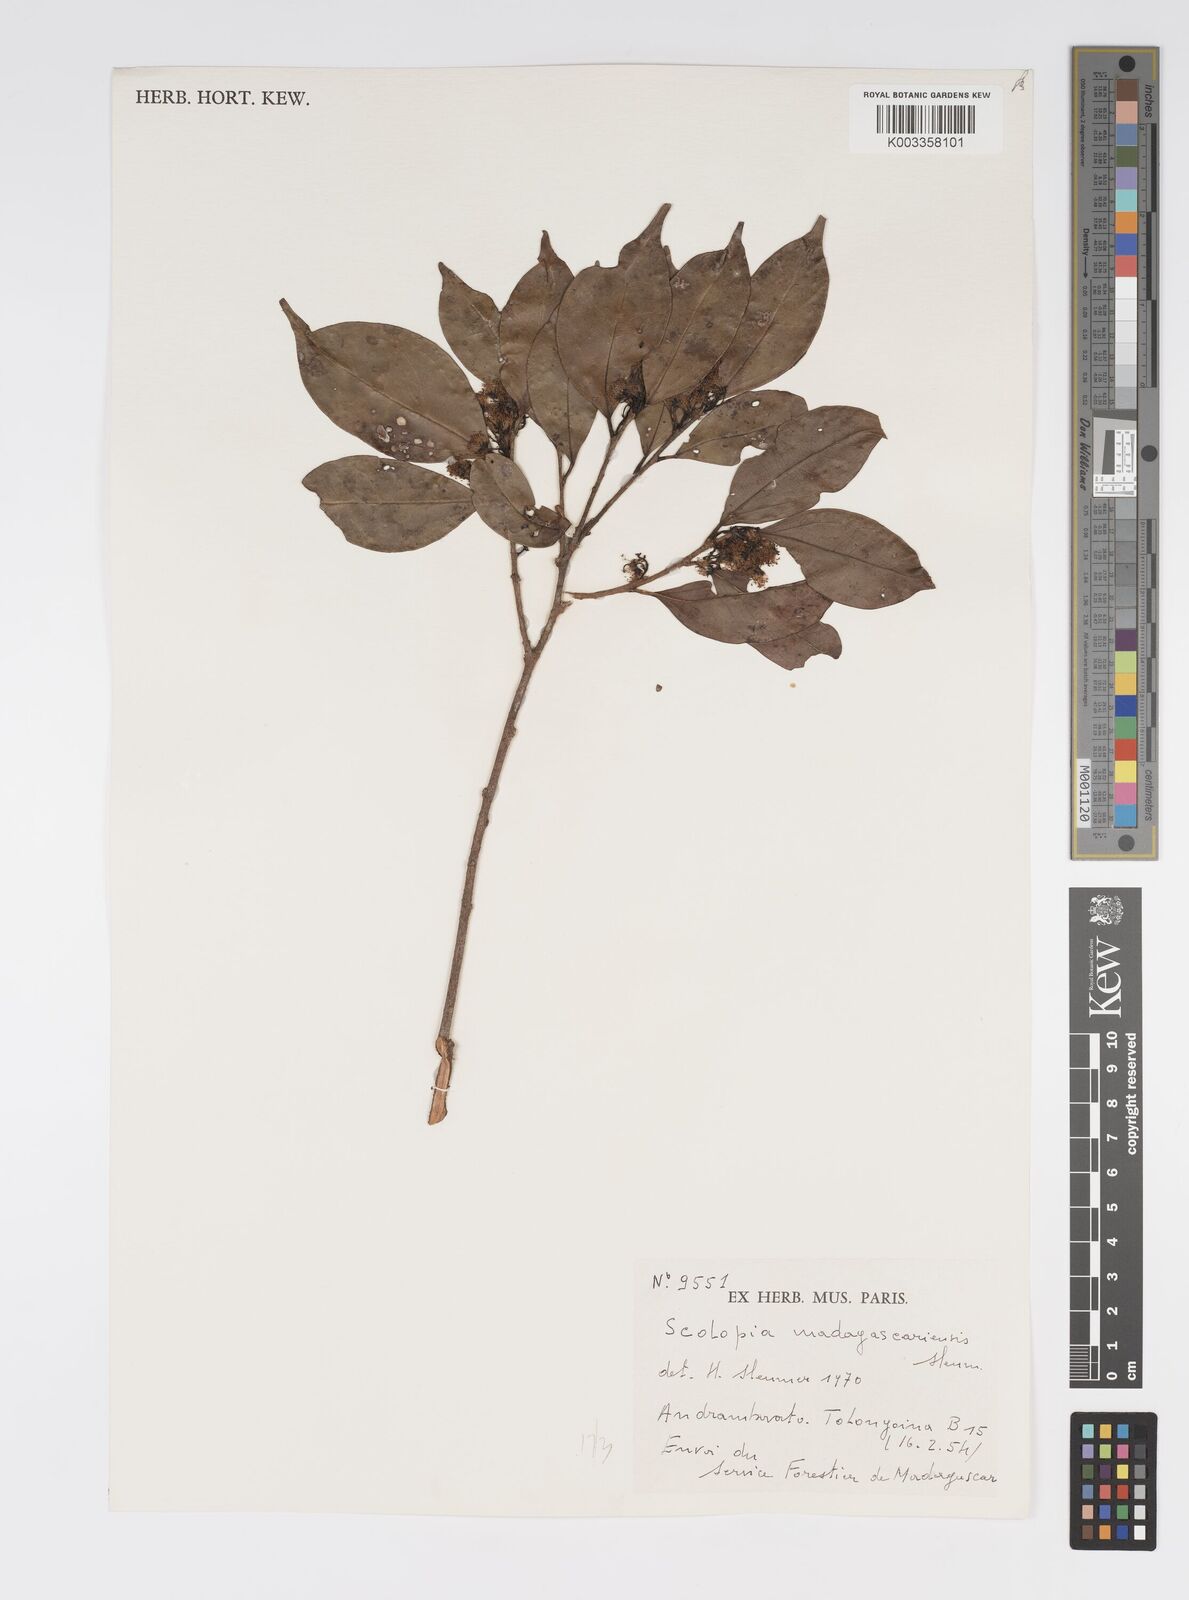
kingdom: Plantae
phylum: Tracheophyta
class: Magnoliopsida
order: Malpighiales
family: Salicaceae
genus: Scolopia
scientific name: Scolopia madagascariensis
